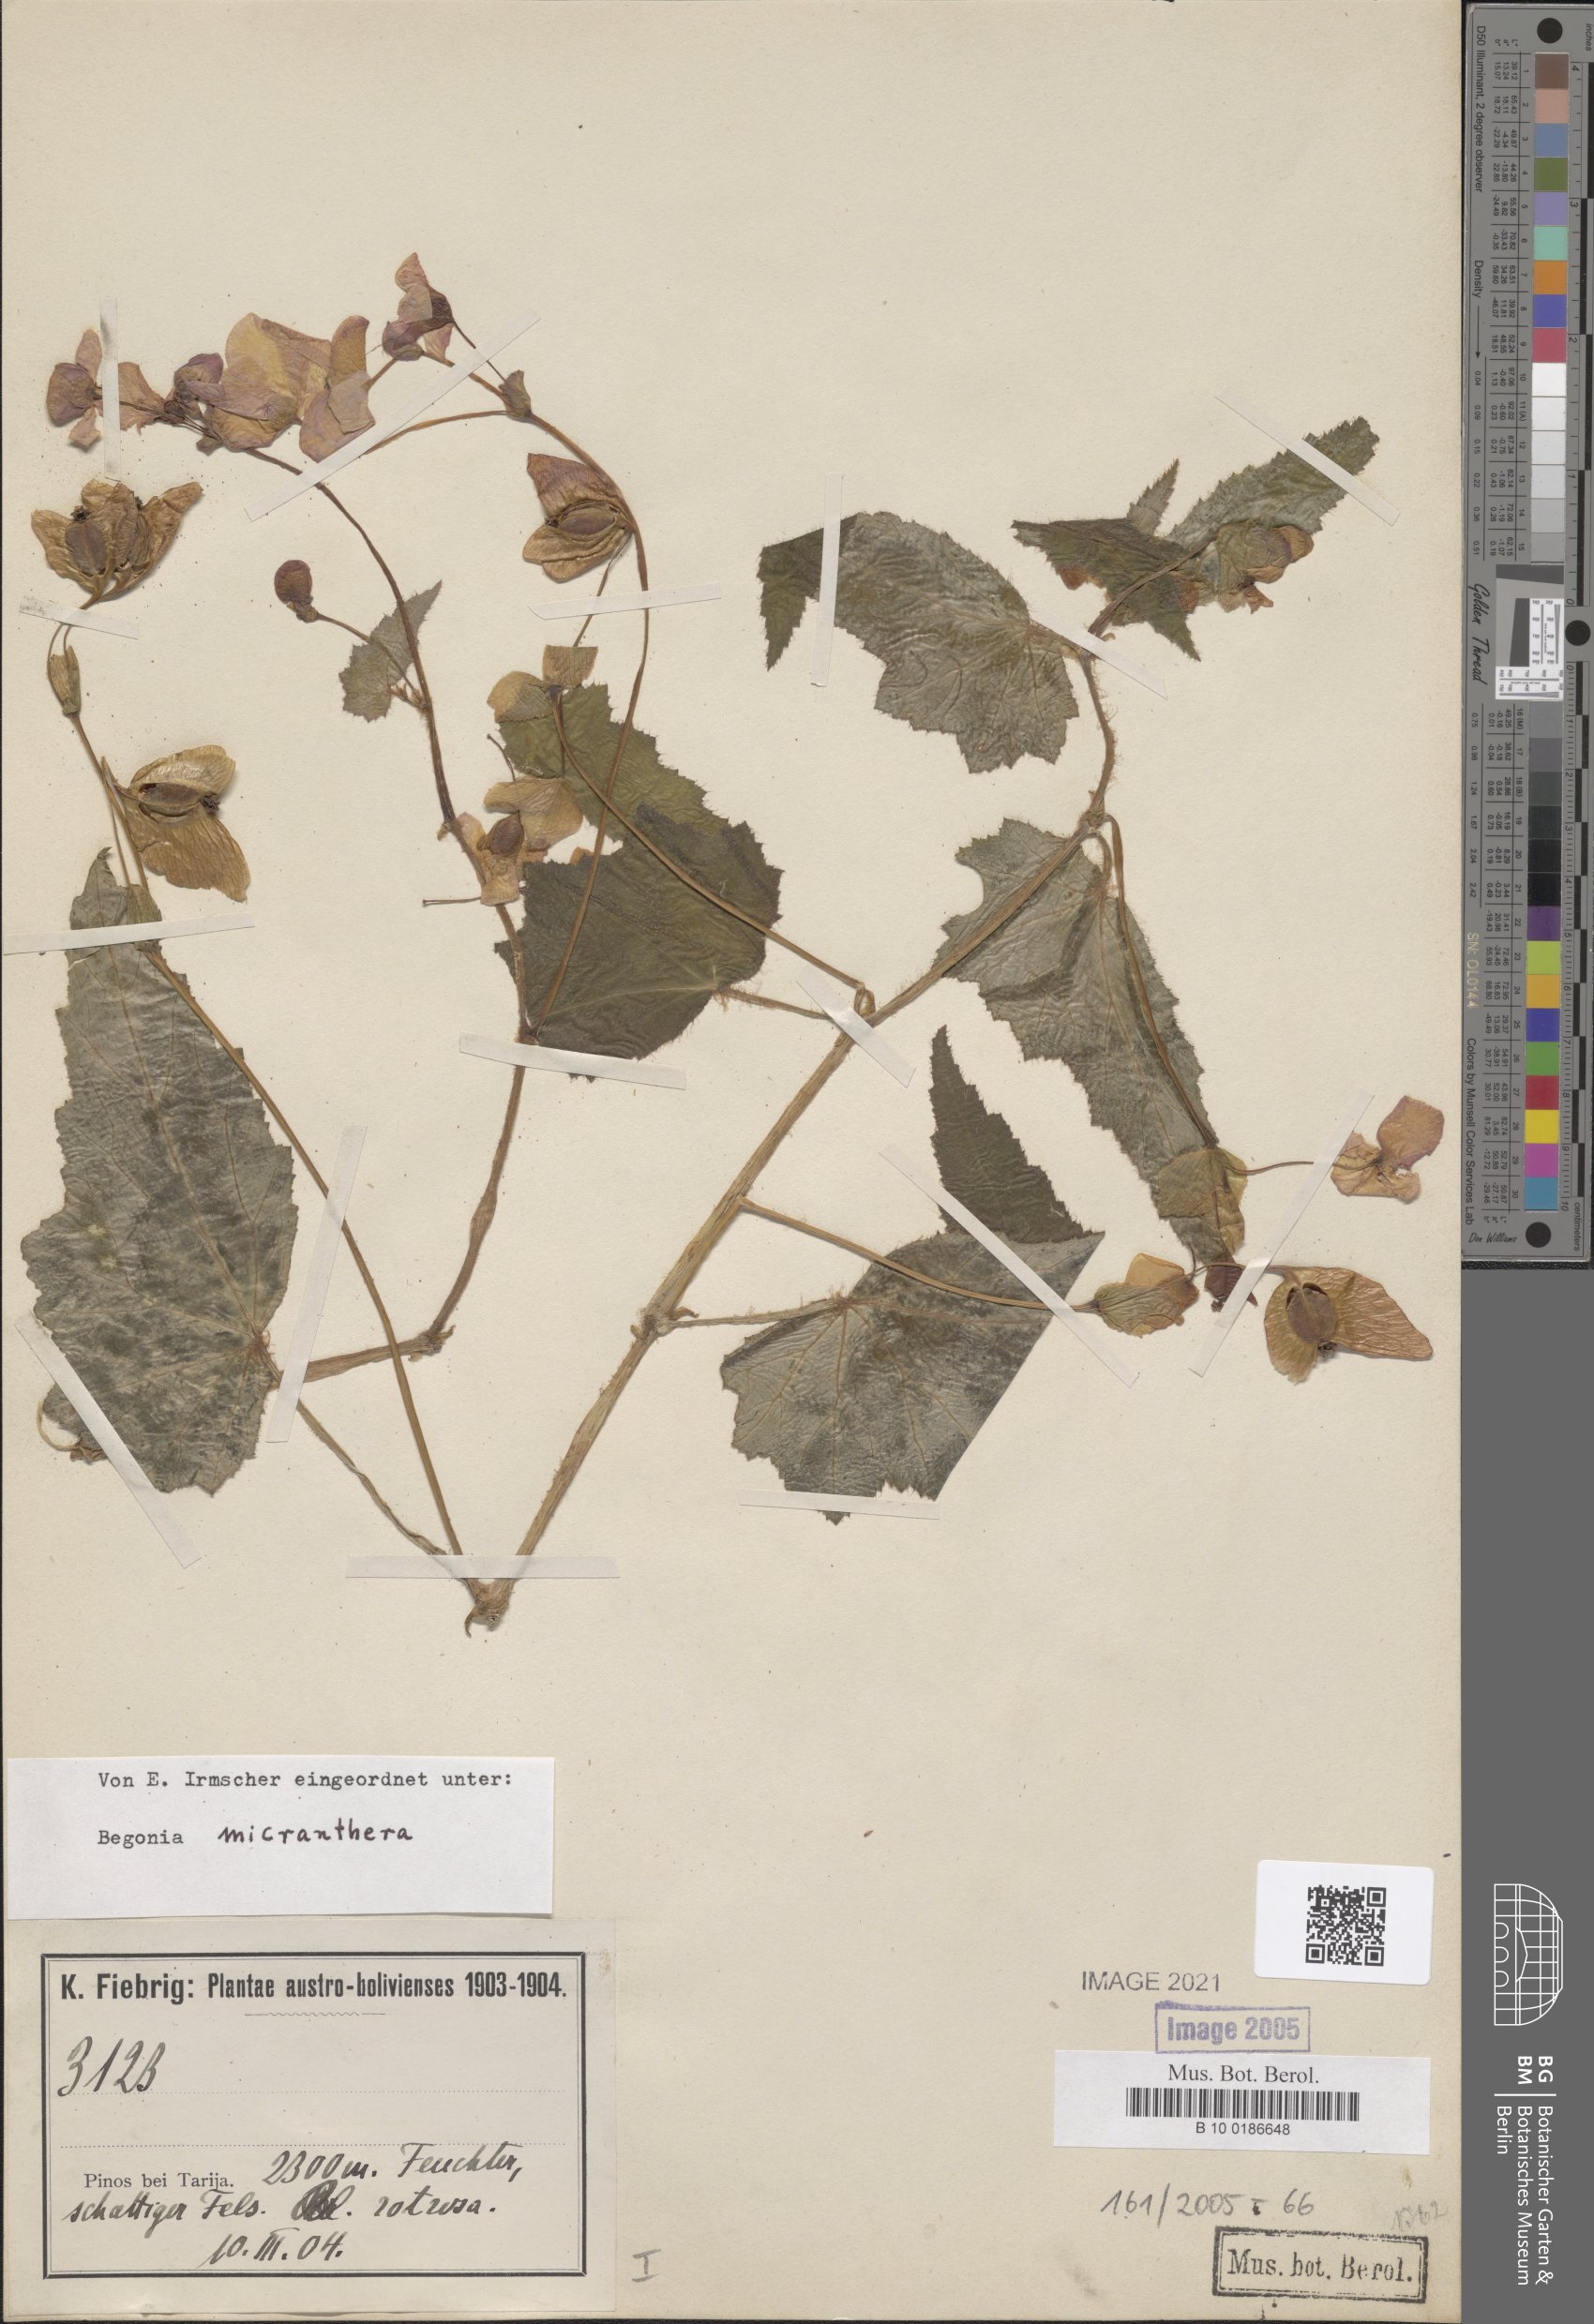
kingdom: Plantae
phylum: Tracheophyta
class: Magnoliopsida
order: Cucurbitales
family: Begoniaceae
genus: Begonia
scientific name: Begonia micranthera
